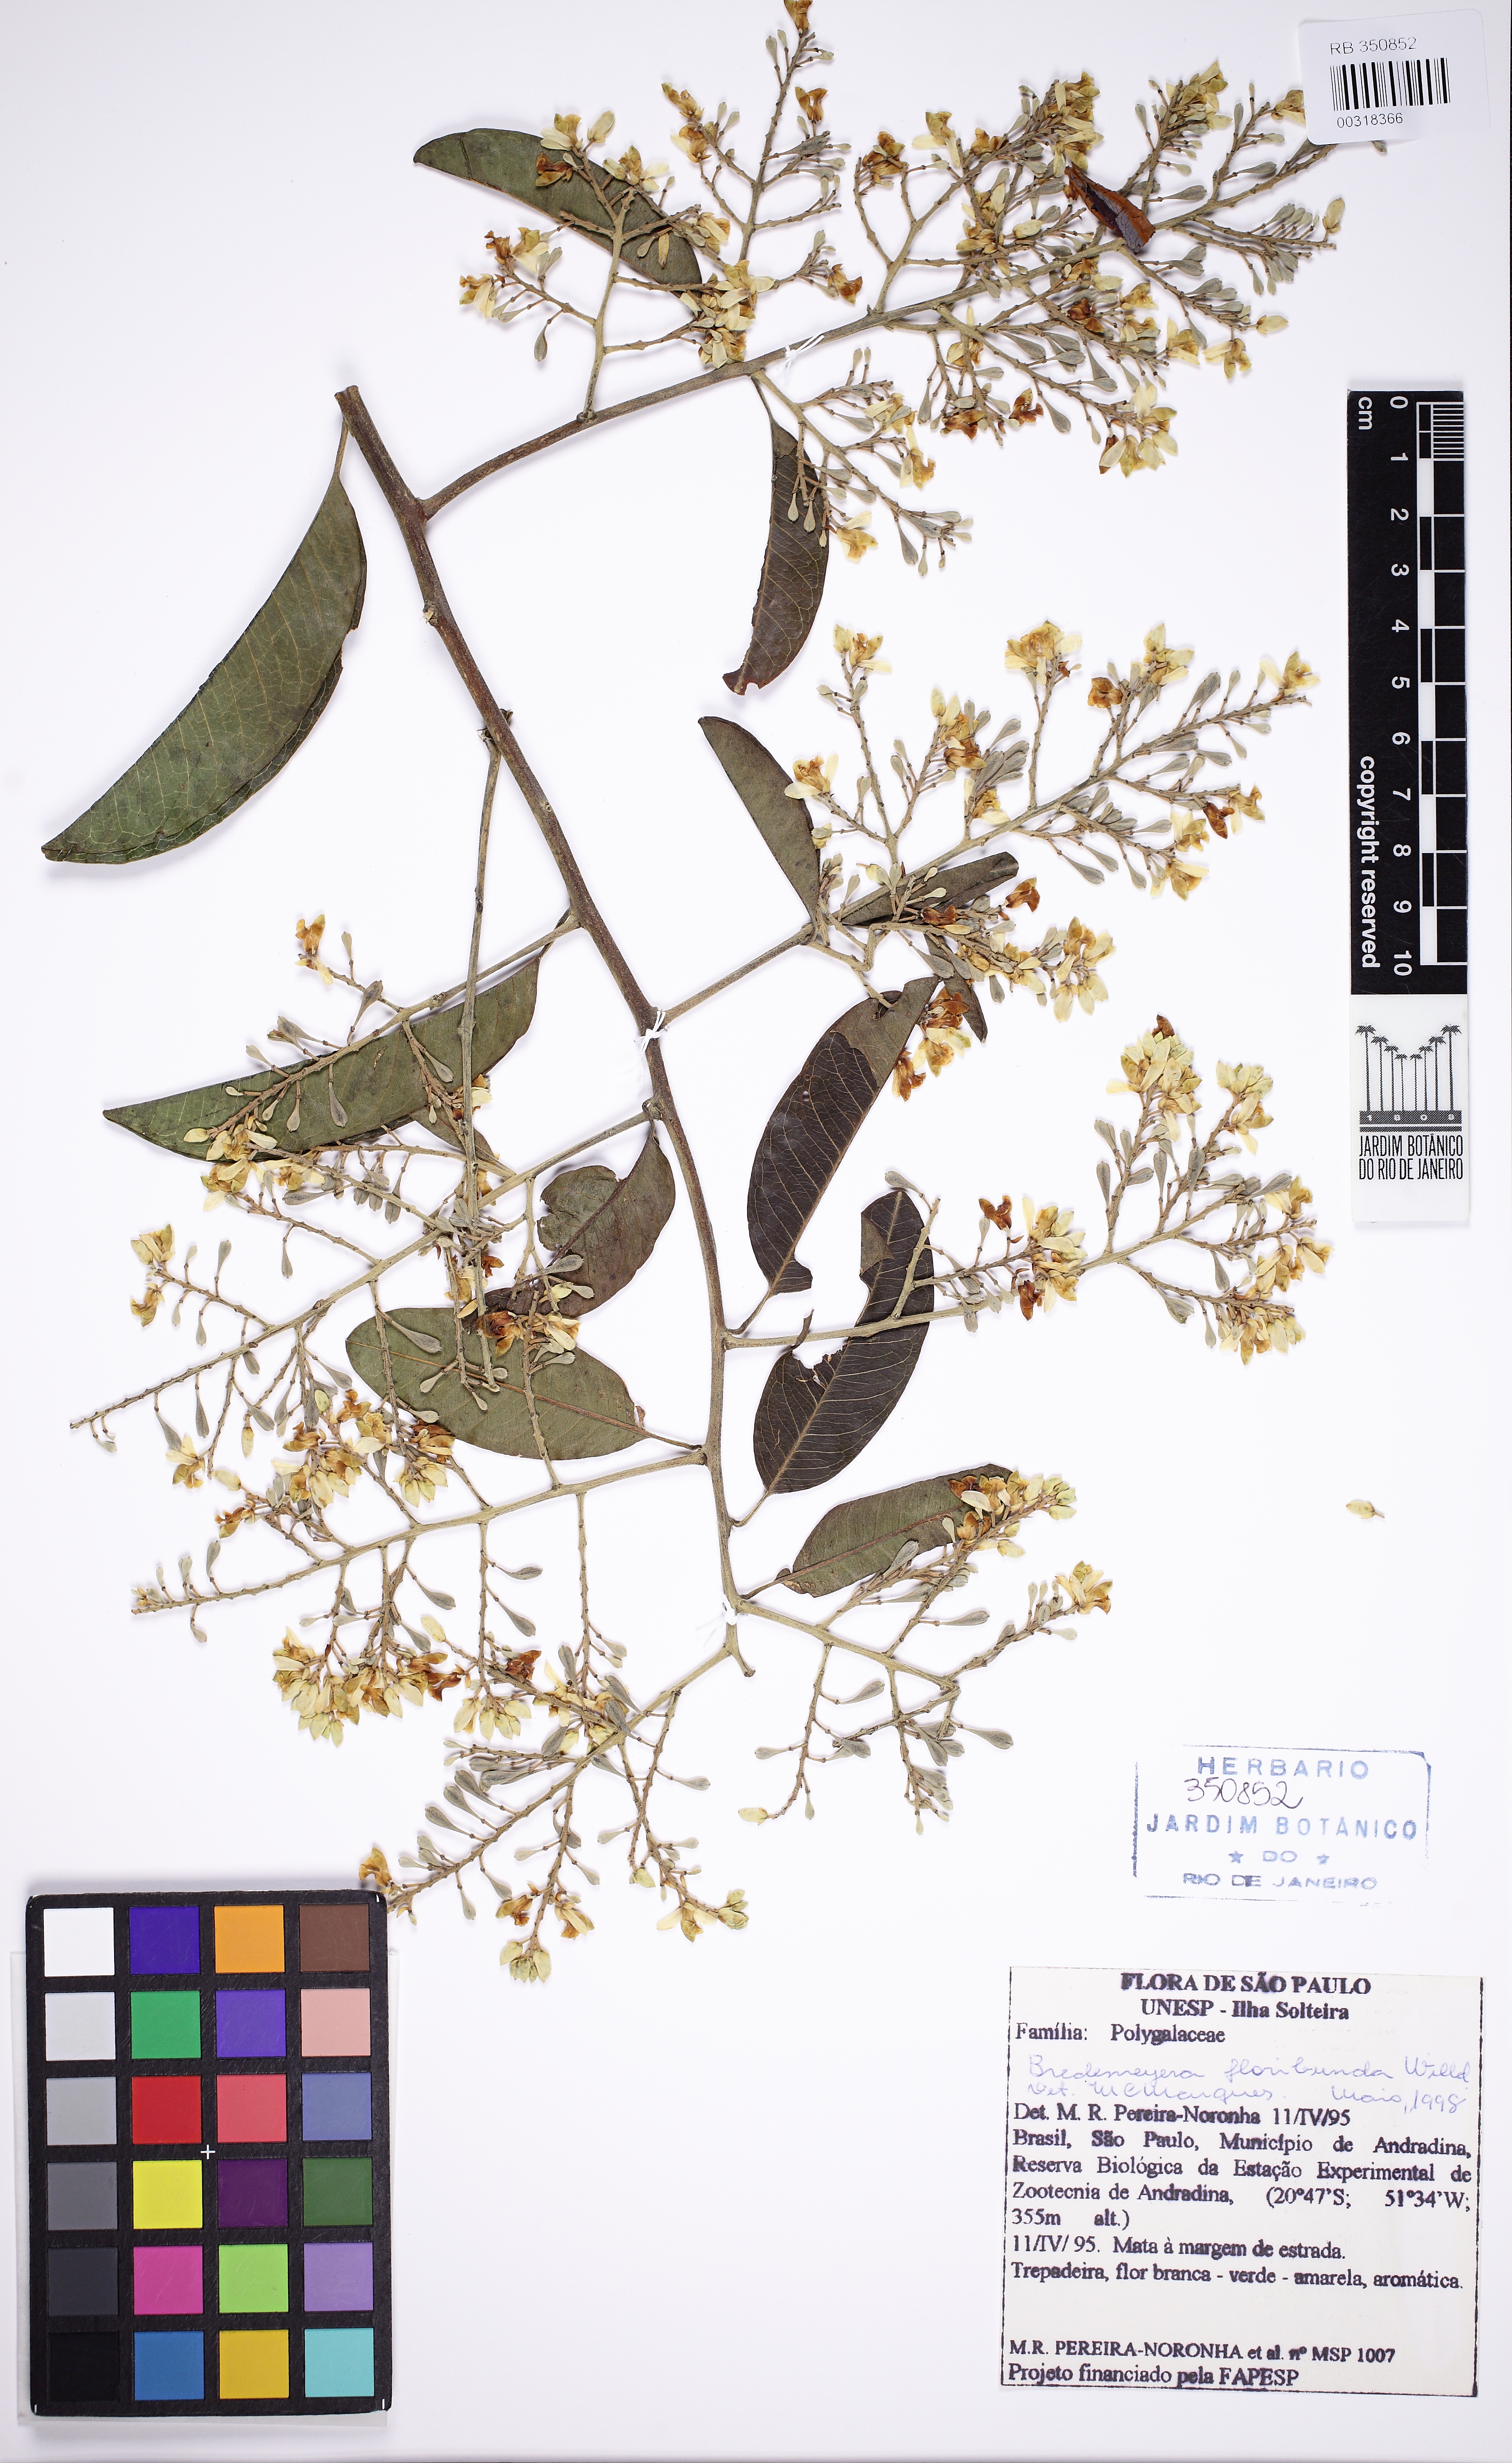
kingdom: Plantae
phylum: Tracheophyta
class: Magnoliopsida
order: Fabales
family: Polygalaceae
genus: Bredemeyera
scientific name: Bredemeyera floribunda
